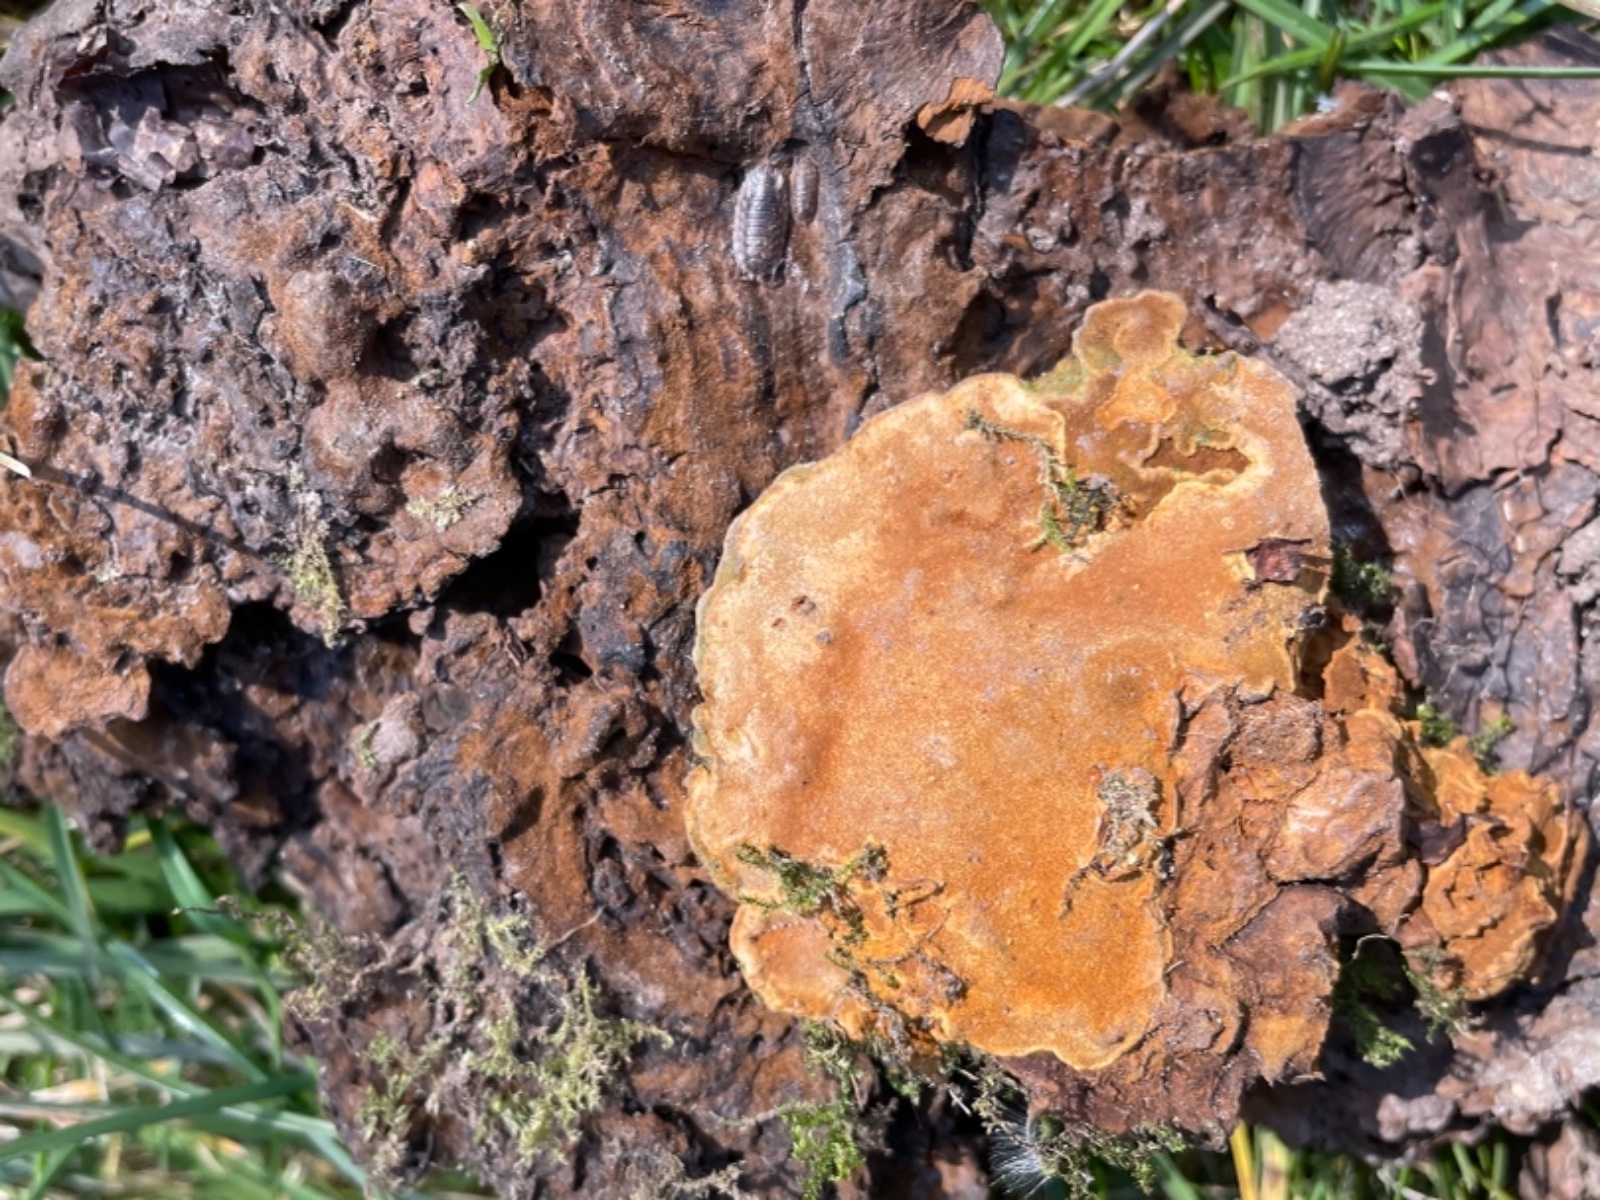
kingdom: Fungi
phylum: Basidiomycota
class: Agaricomycetes
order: Hymenochaetales
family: Hymenochaetaceae
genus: Phylloporia
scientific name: Phylloporia ribis
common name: ribs-ildporesvamp
